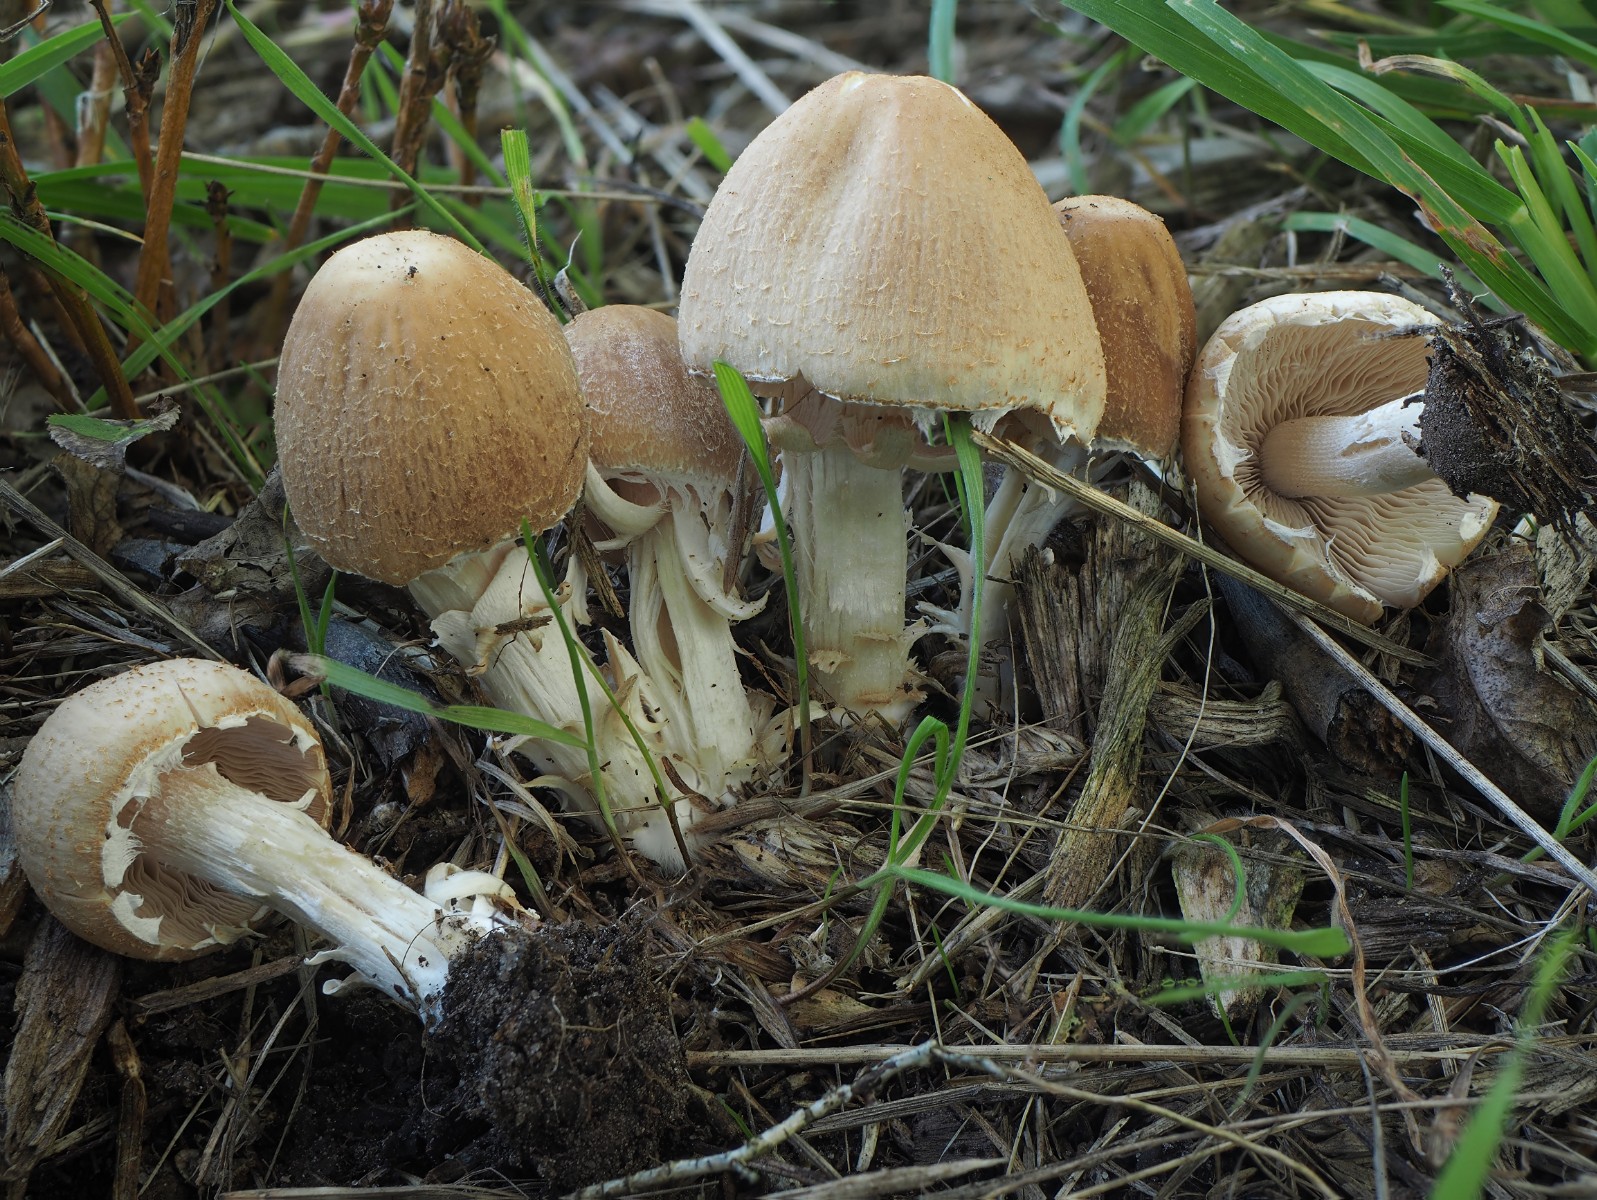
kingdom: Fungi
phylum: Basidiomycota
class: Agaricomycetes
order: Agaricales
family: Psathyrellaceae
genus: Candolleomyces
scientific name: Candolleomyces candolleanus
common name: Candolles mørkhat
